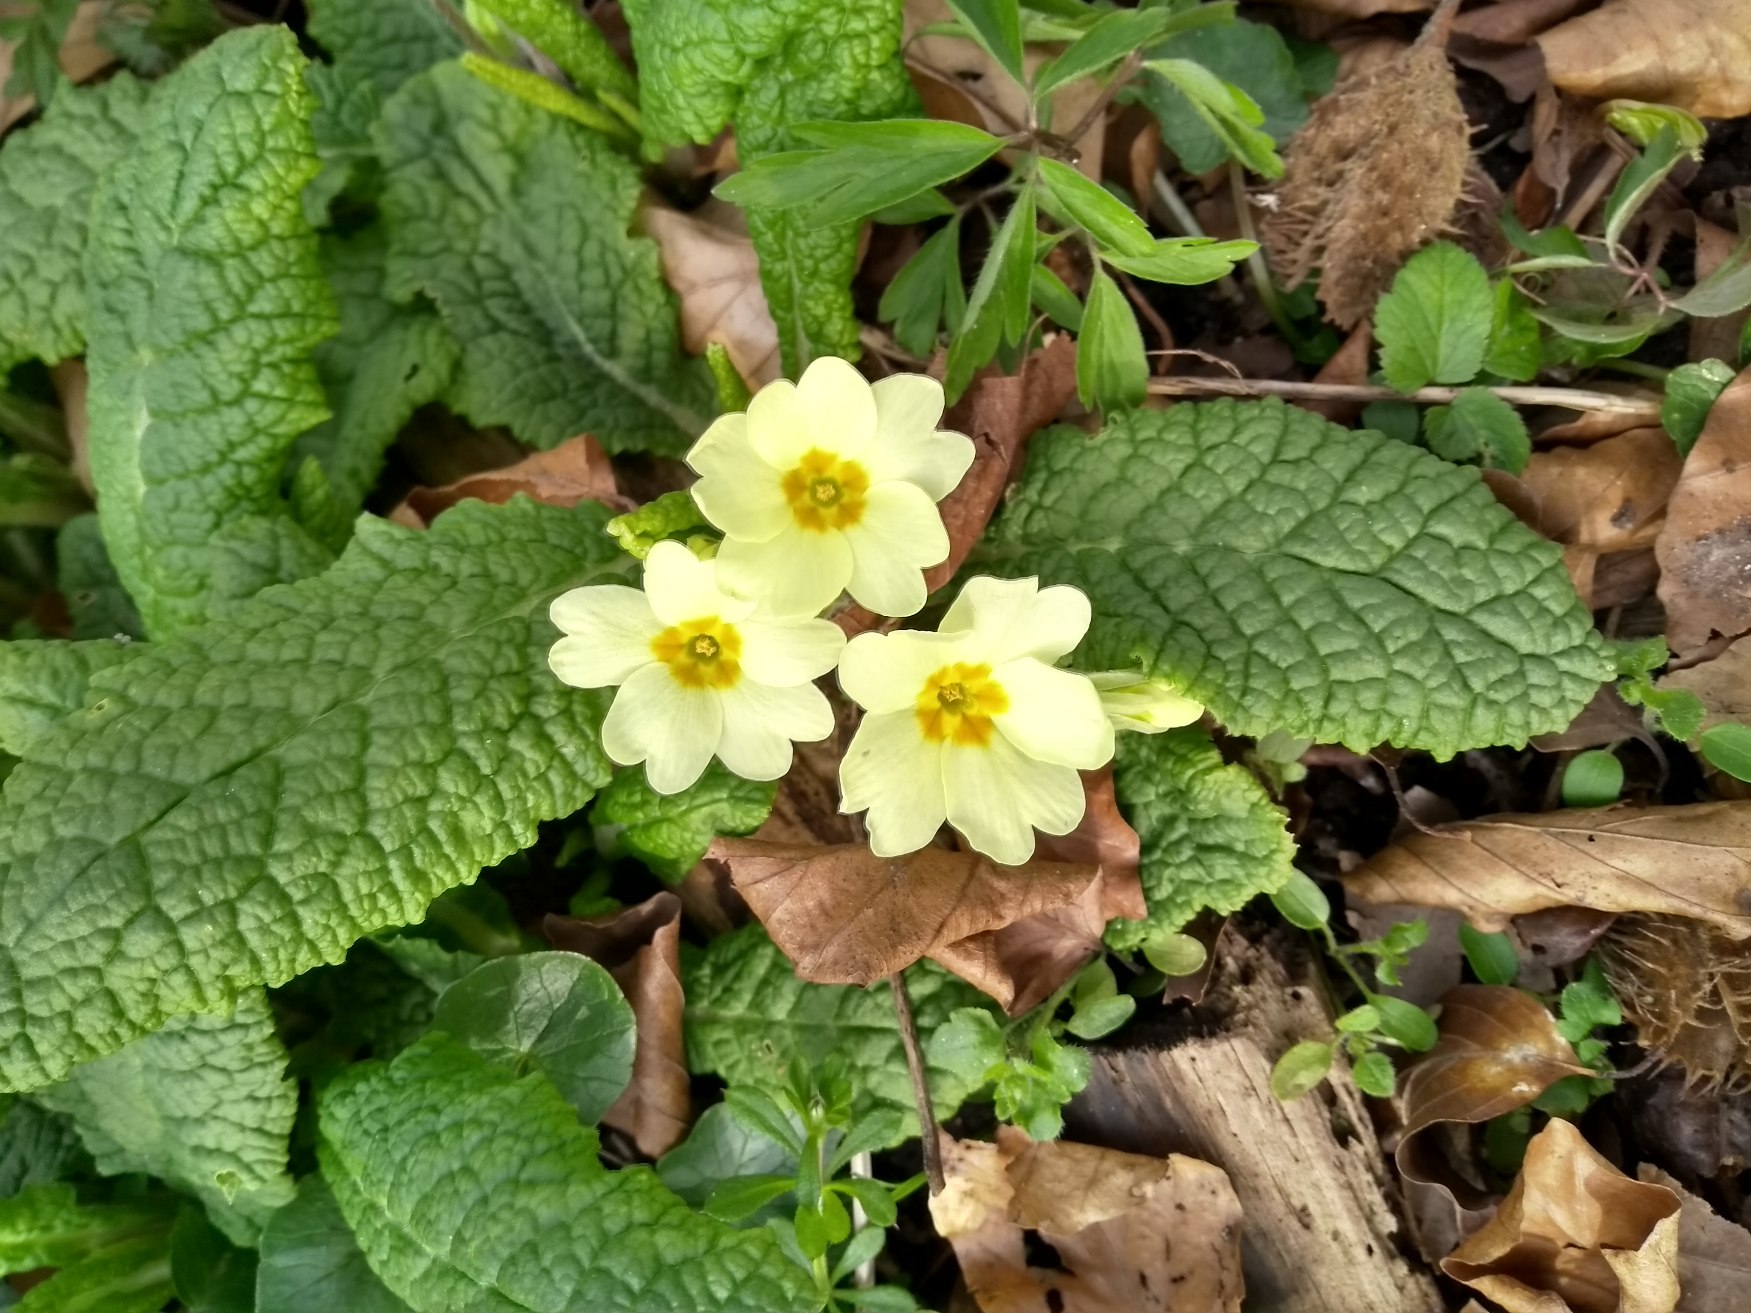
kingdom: Plantae
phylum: Tracheophyta
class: Magnoliopsida
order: Ericales
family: Primulaceae
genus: Primula
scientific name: Primula vulgaris
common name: Storblomstret kodriver
